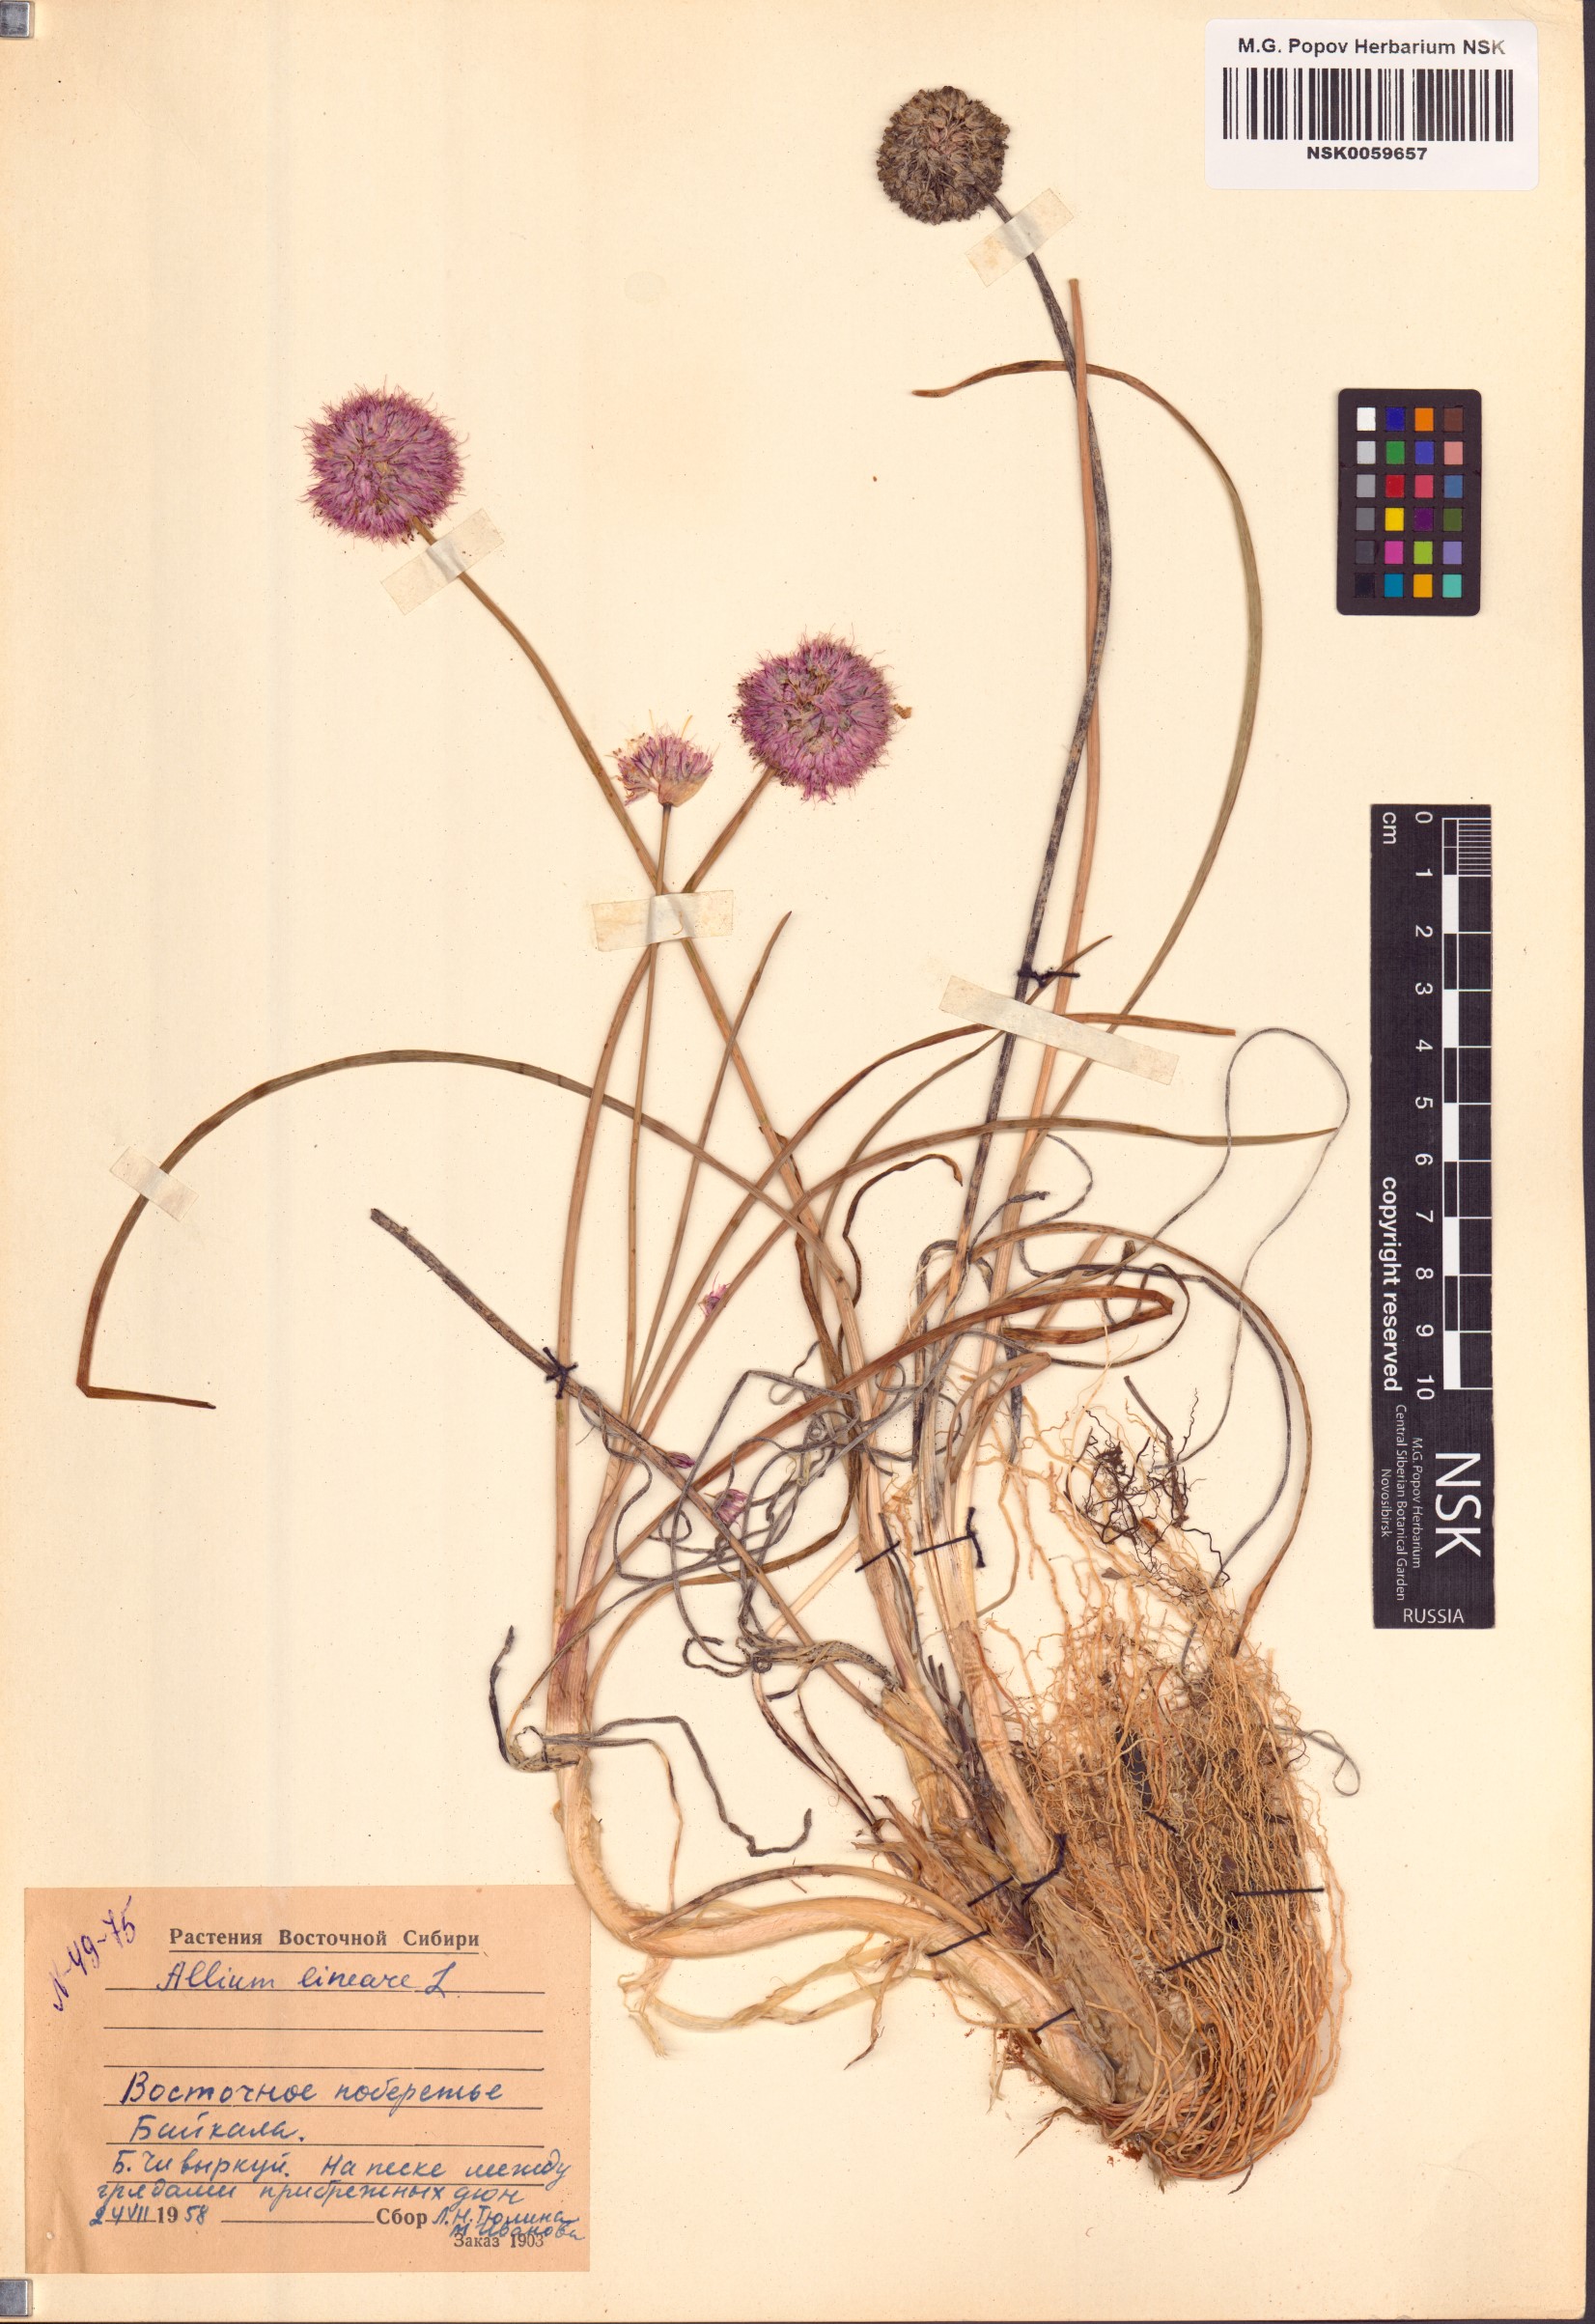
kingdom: Plantae
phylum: Tracheophyta
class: Liliopsida
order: Asparagales
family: Amaryllidaceae
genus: Allium
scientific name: Allium lineare
